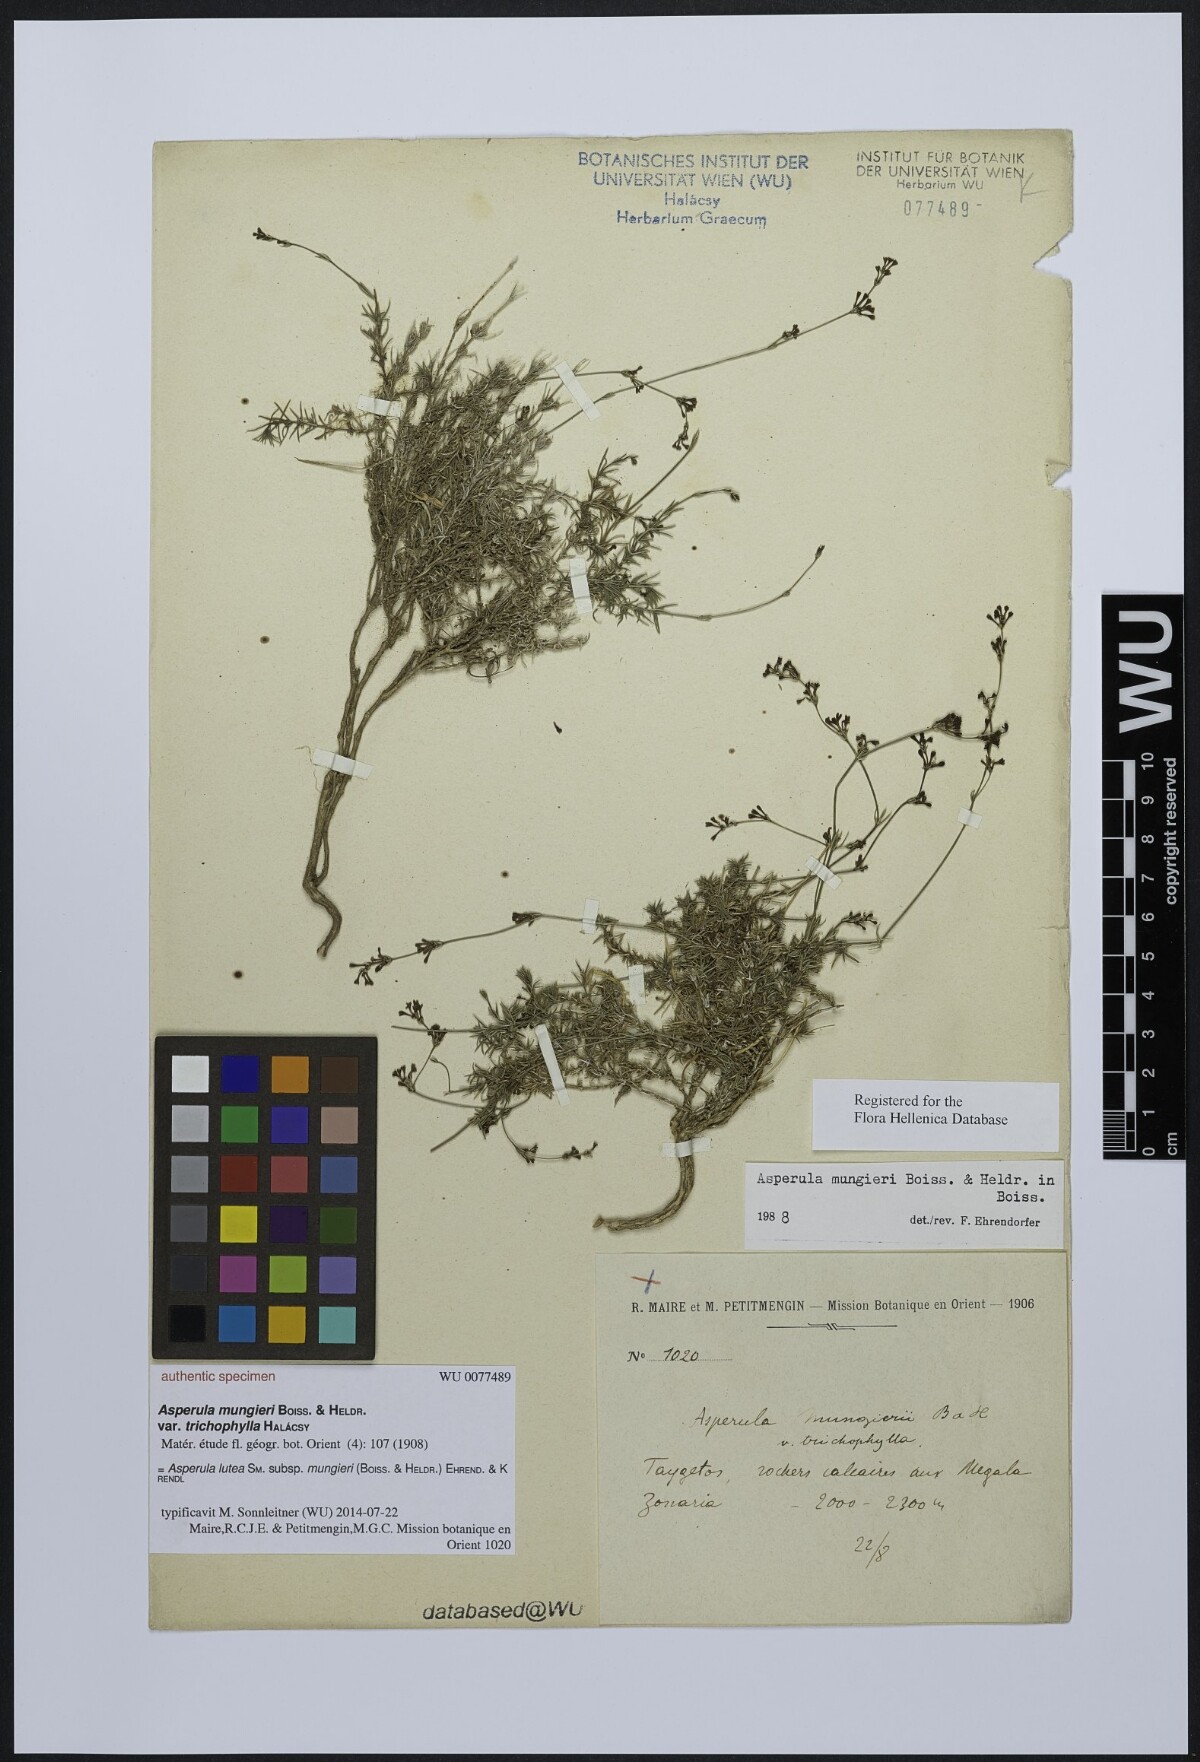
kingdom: Plantae
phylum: Tracheophyta
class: Magnoliopsida
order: Gentianales
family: Rubiaceae
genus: Cynanchica
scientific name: Cynanchica mungieri
